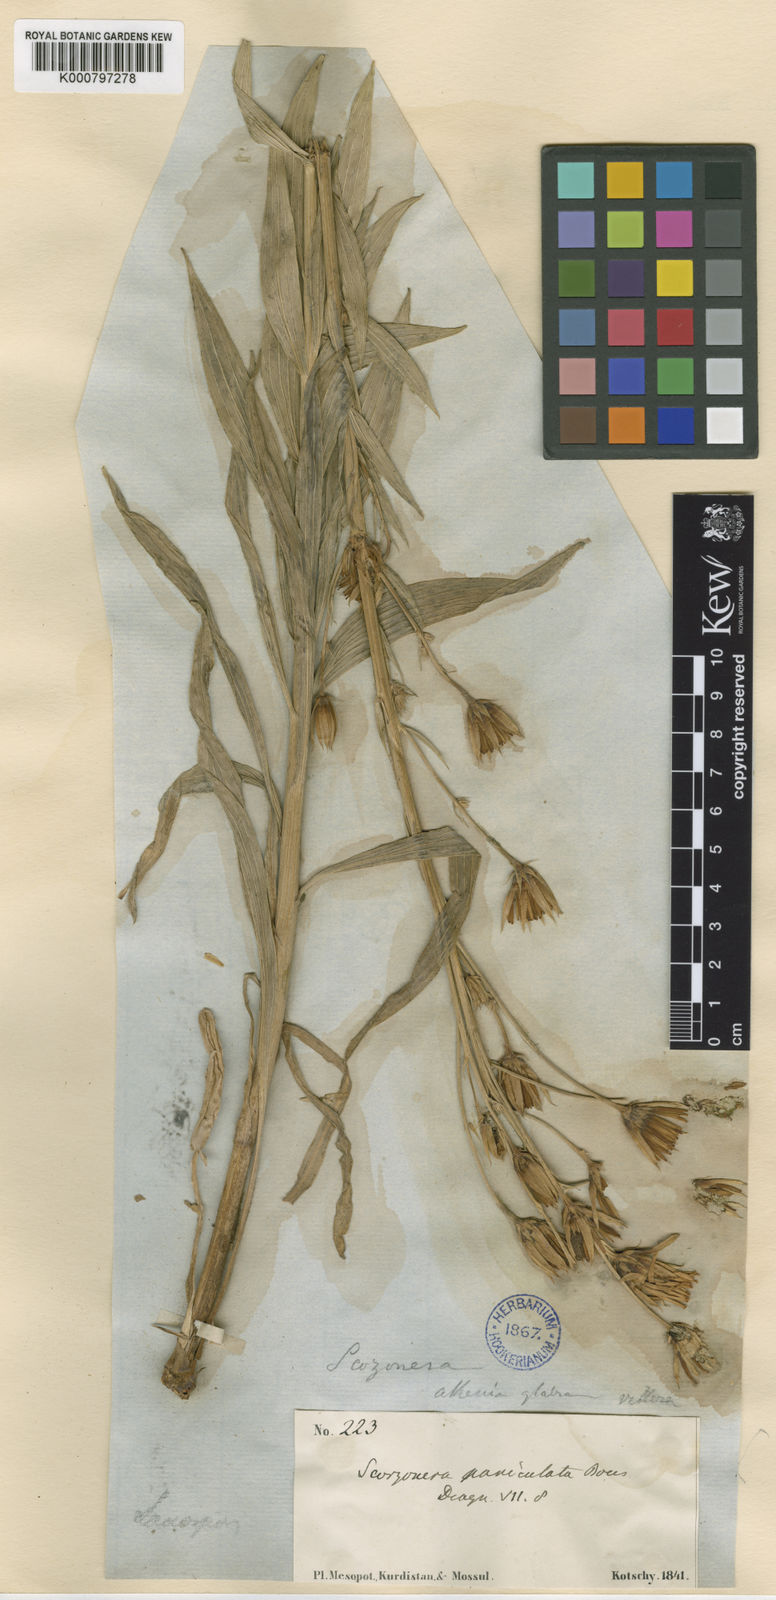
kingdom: Plantae
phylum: Tracheophyta
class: Magnoliopsida
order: Asterales
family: Asteraceae
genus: Guneria
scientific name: Guneria latifolia
